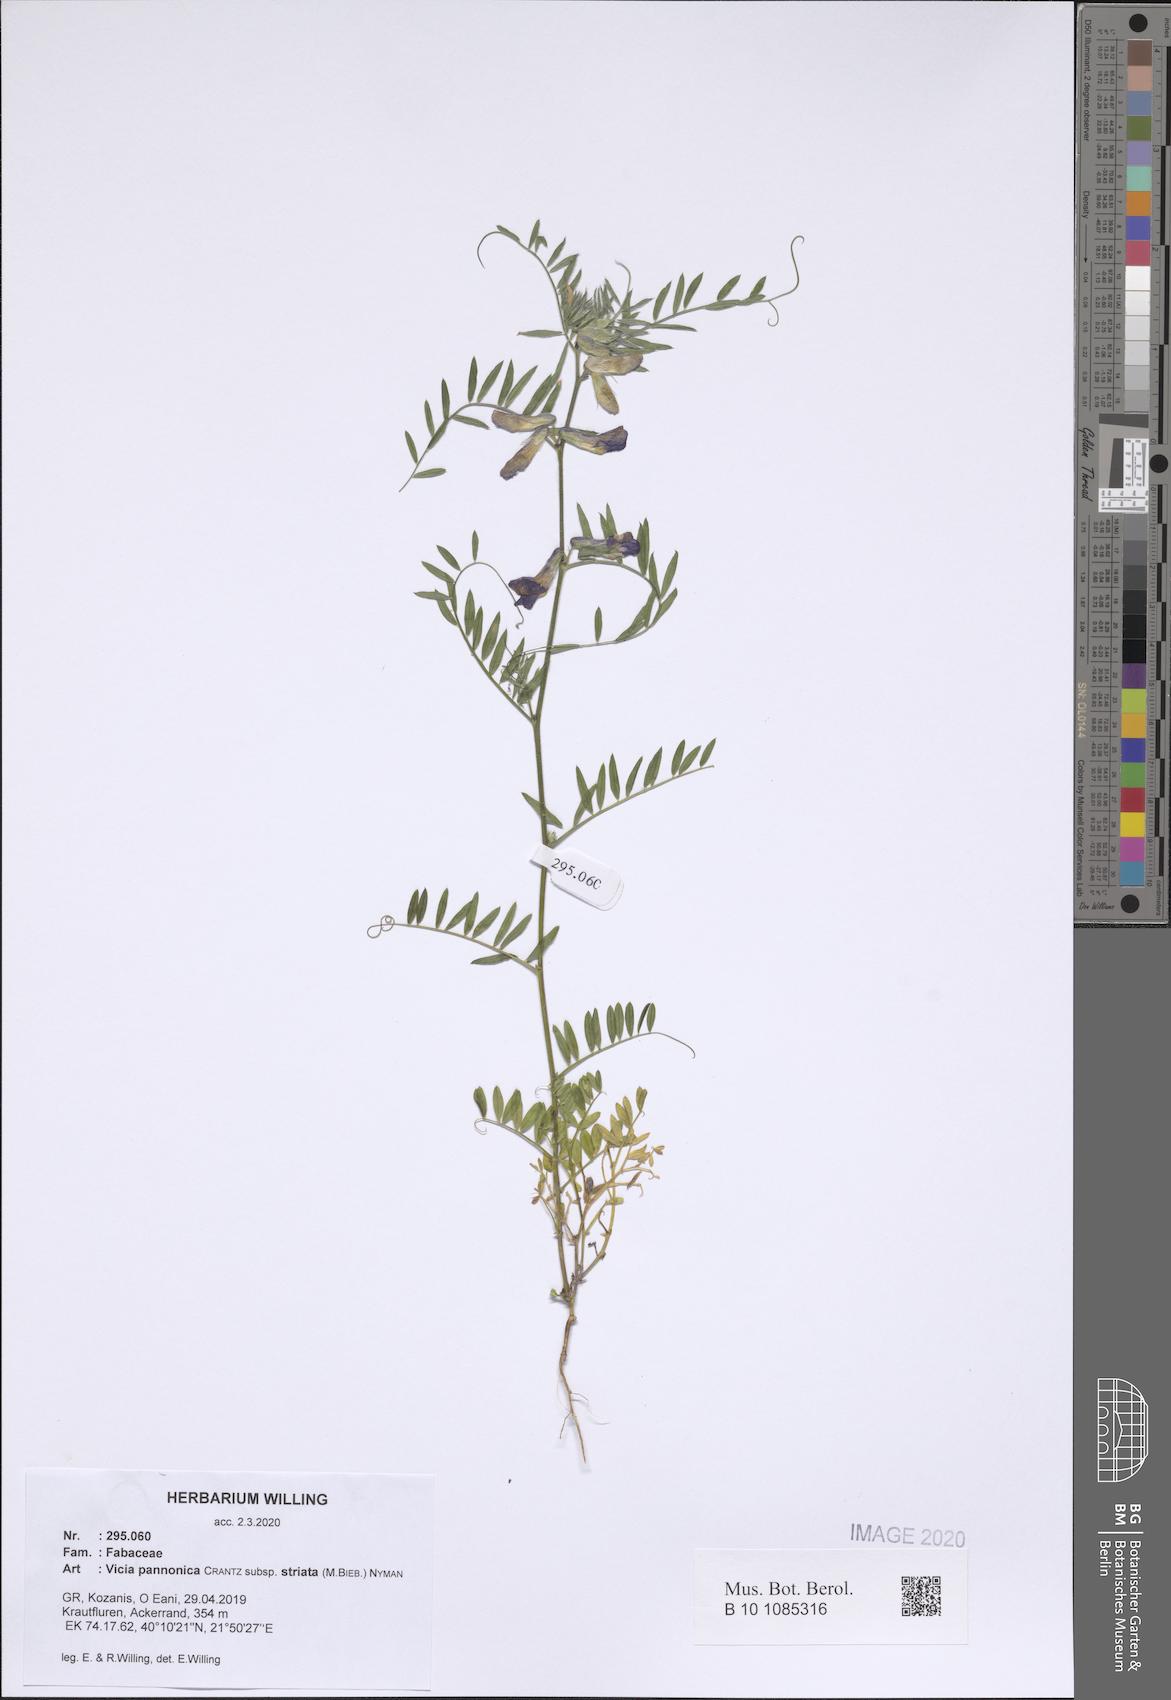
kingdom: Plantae
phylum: Tracheophyta
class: Magnoliopsida
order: Fabales
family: Fabaceae
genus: Vicia
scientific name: Vicia pannonica
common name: Hungarian vetch
